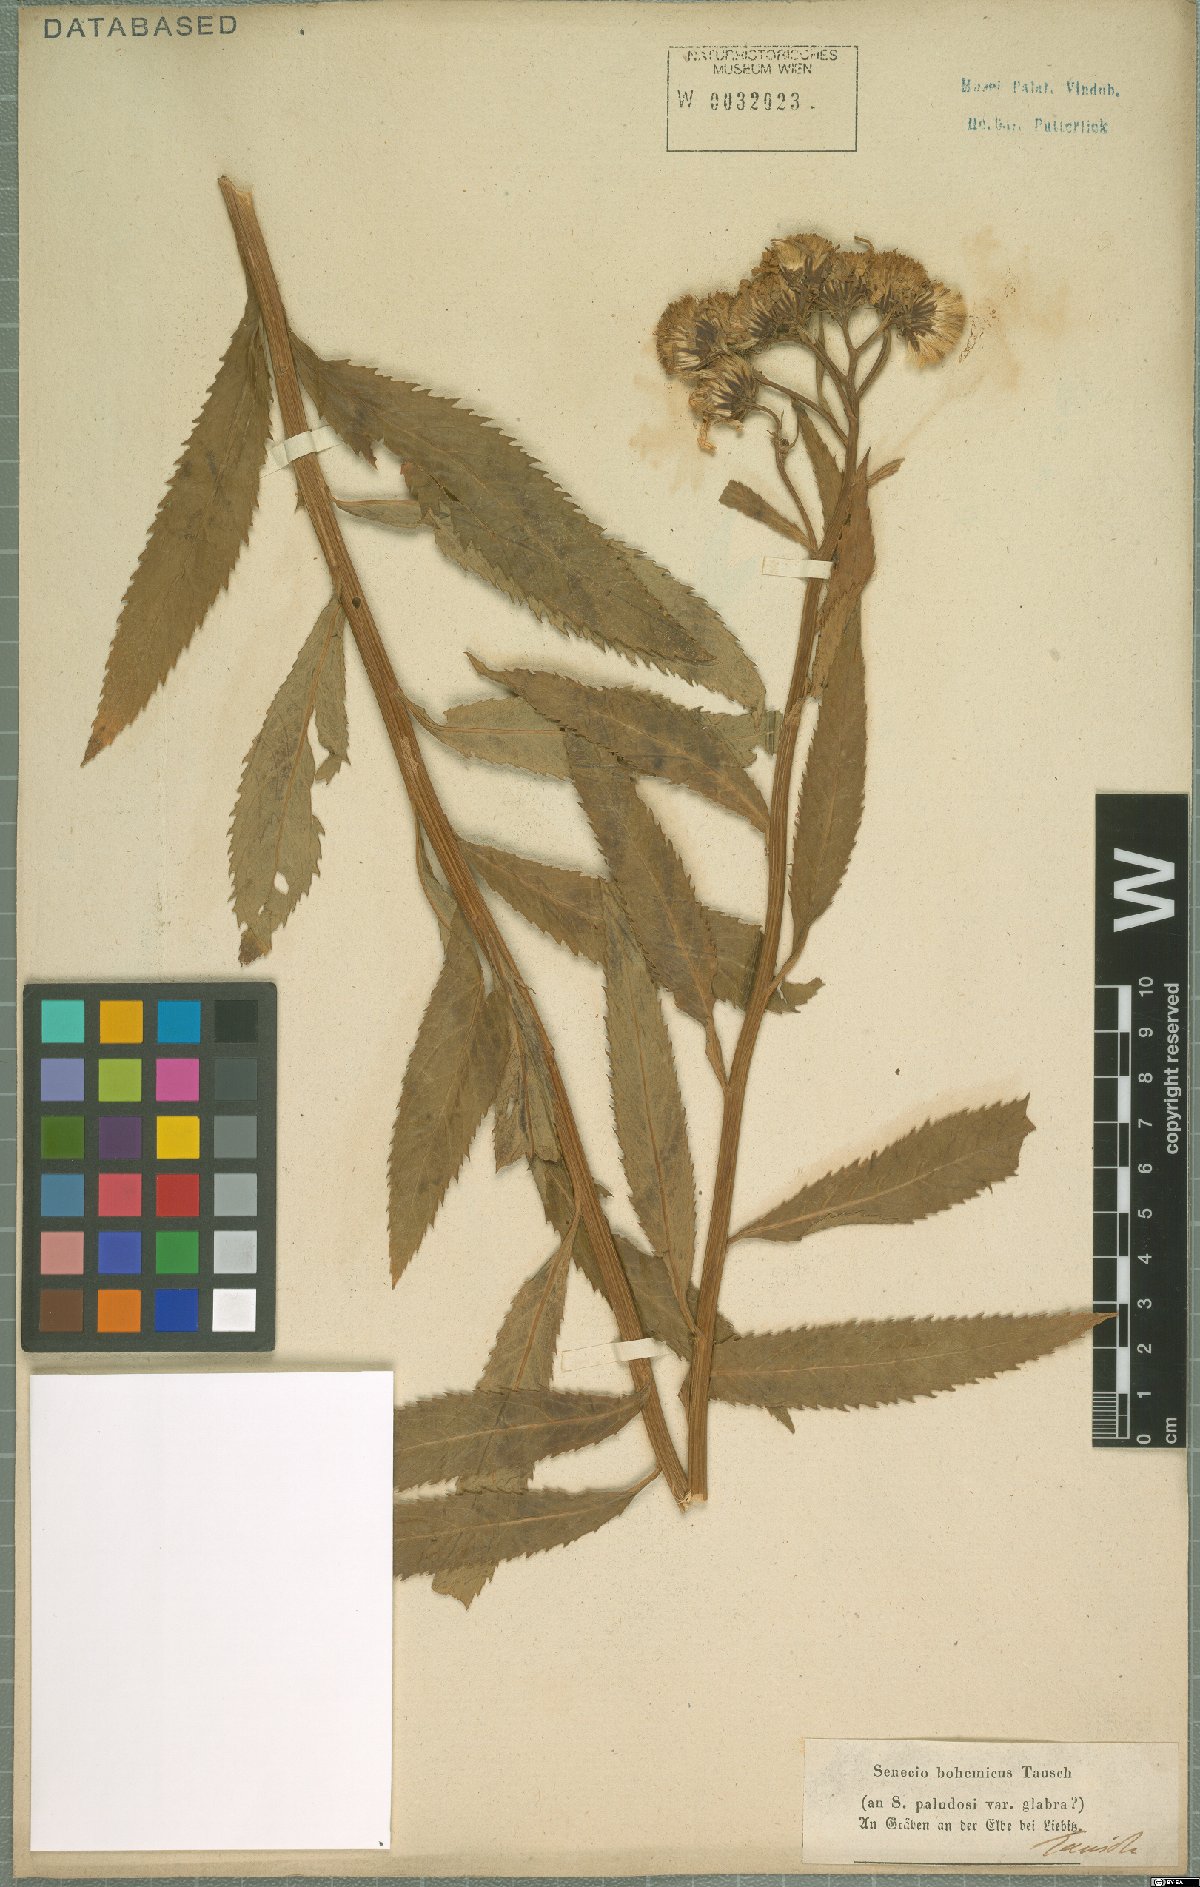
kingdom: Plantae
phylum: Tracheophyta
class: Magnoliopsida
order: Asterales
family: Asteraceae
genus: Jacobaea
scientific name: Jacobaea paludosa
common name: Fen ragwort
